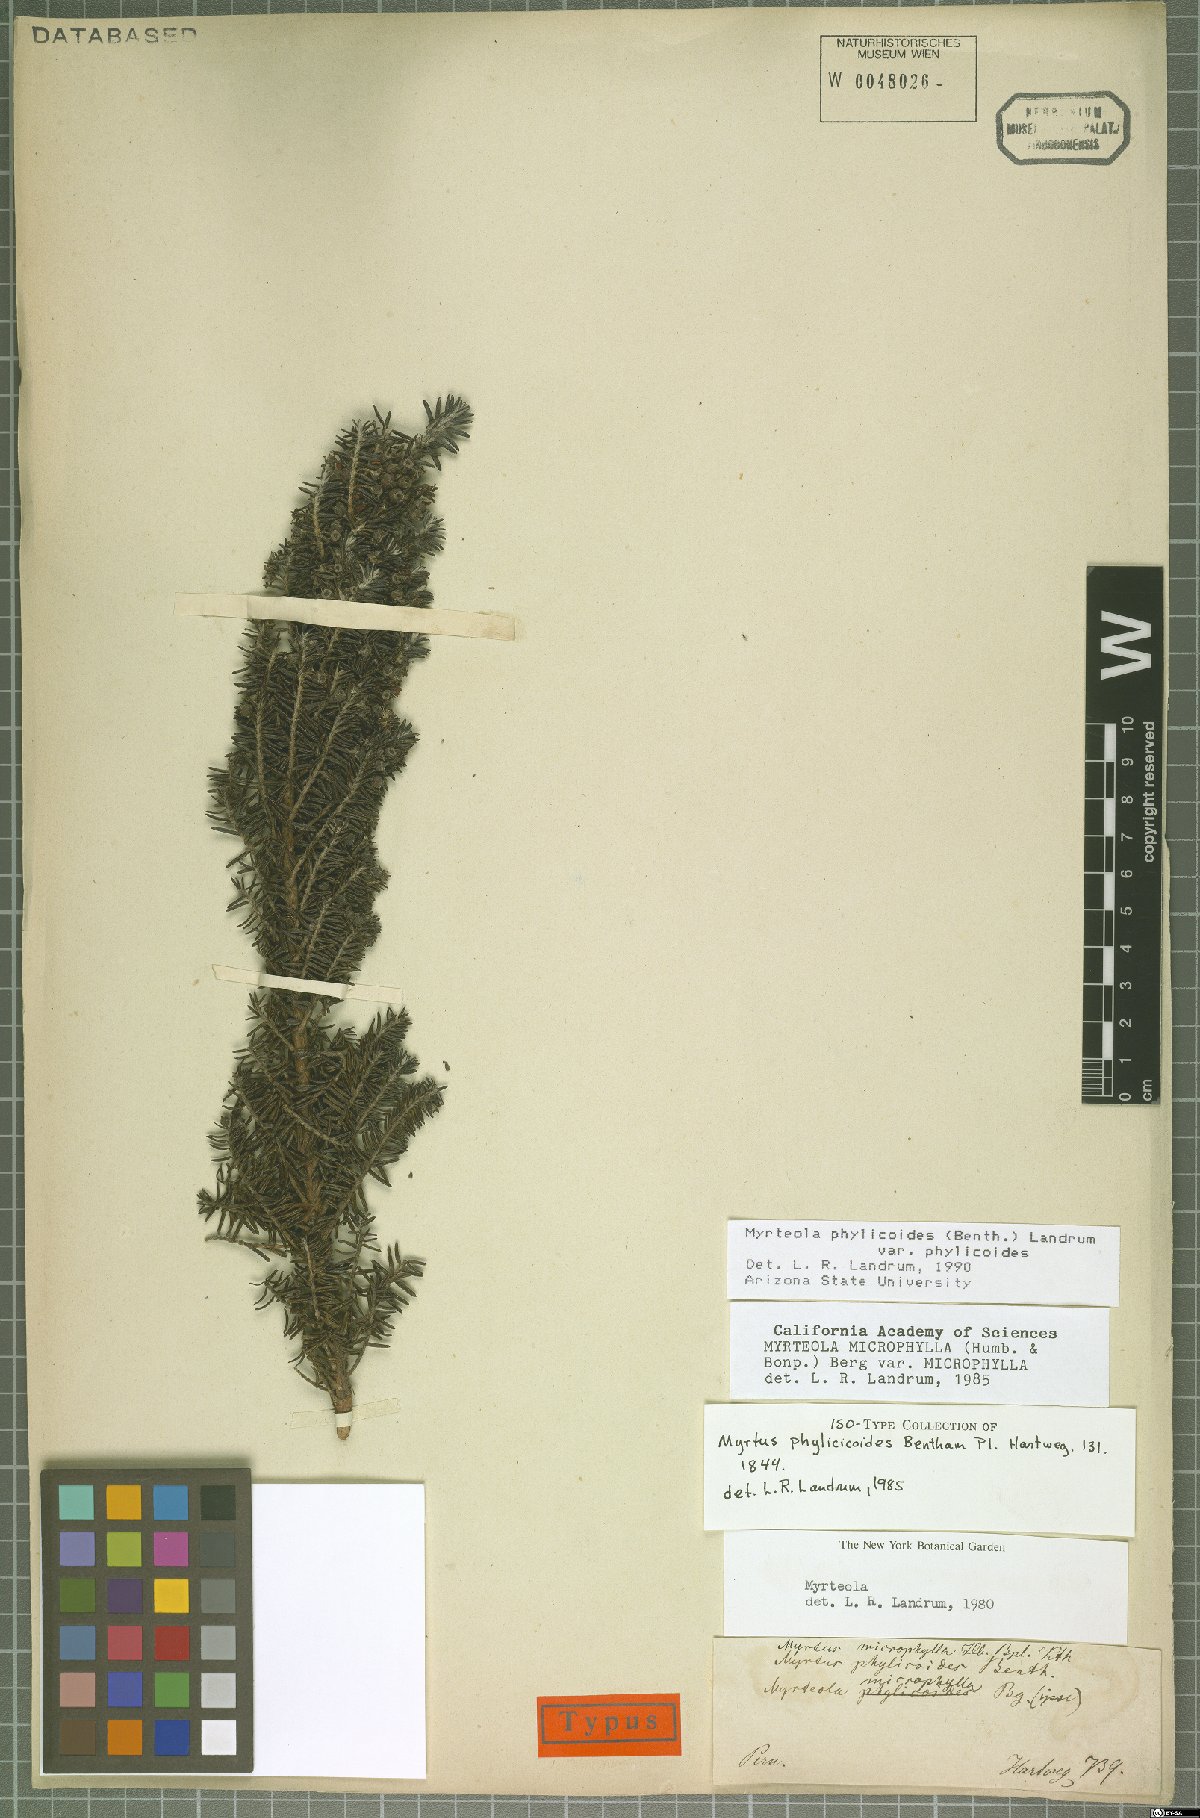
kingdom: Plantae
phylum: Tracheophyta
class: Magnoliopsida
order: Myrtales
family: Myrtaceae
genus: Myrteola
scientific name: Myrteola phylicoides
